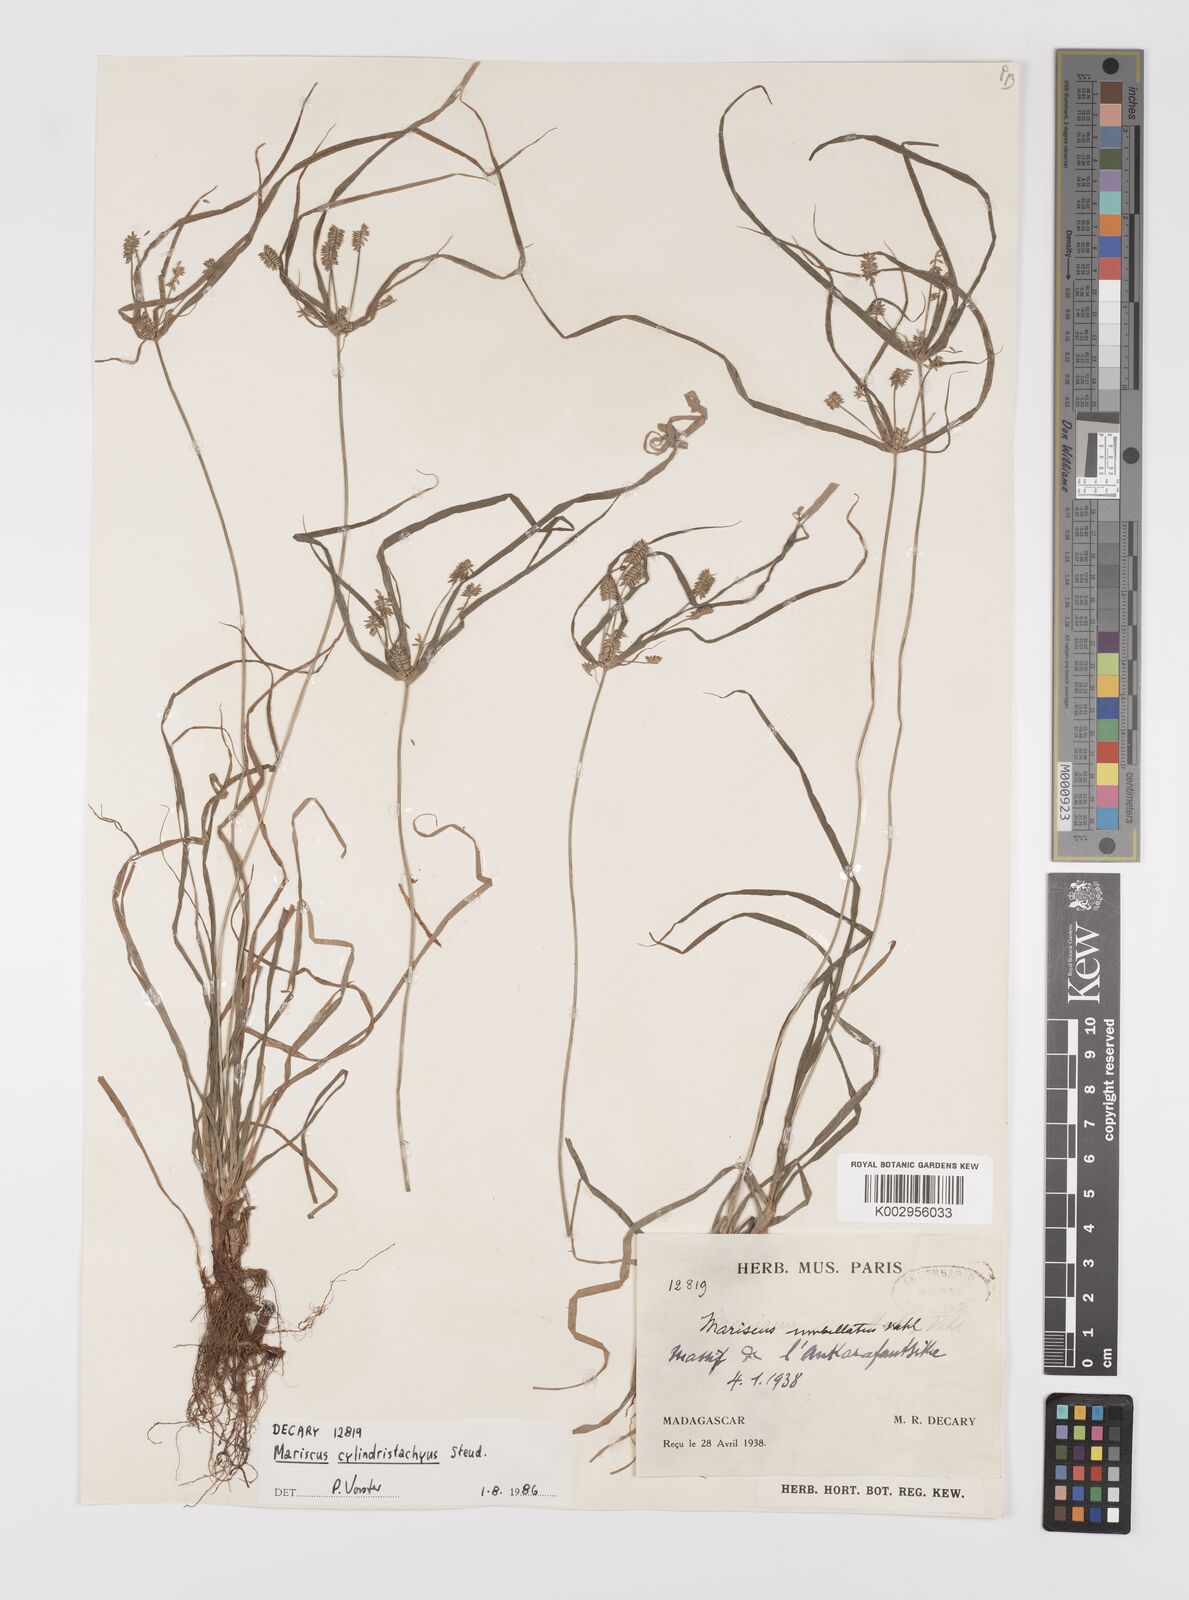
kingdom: Plantae
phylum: Tracheophyta
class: Liliopsida
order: Poales
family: Cyperaceae
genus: Cyperus
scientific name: Cyperus cyperoides
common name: Pacific island flat sedge
